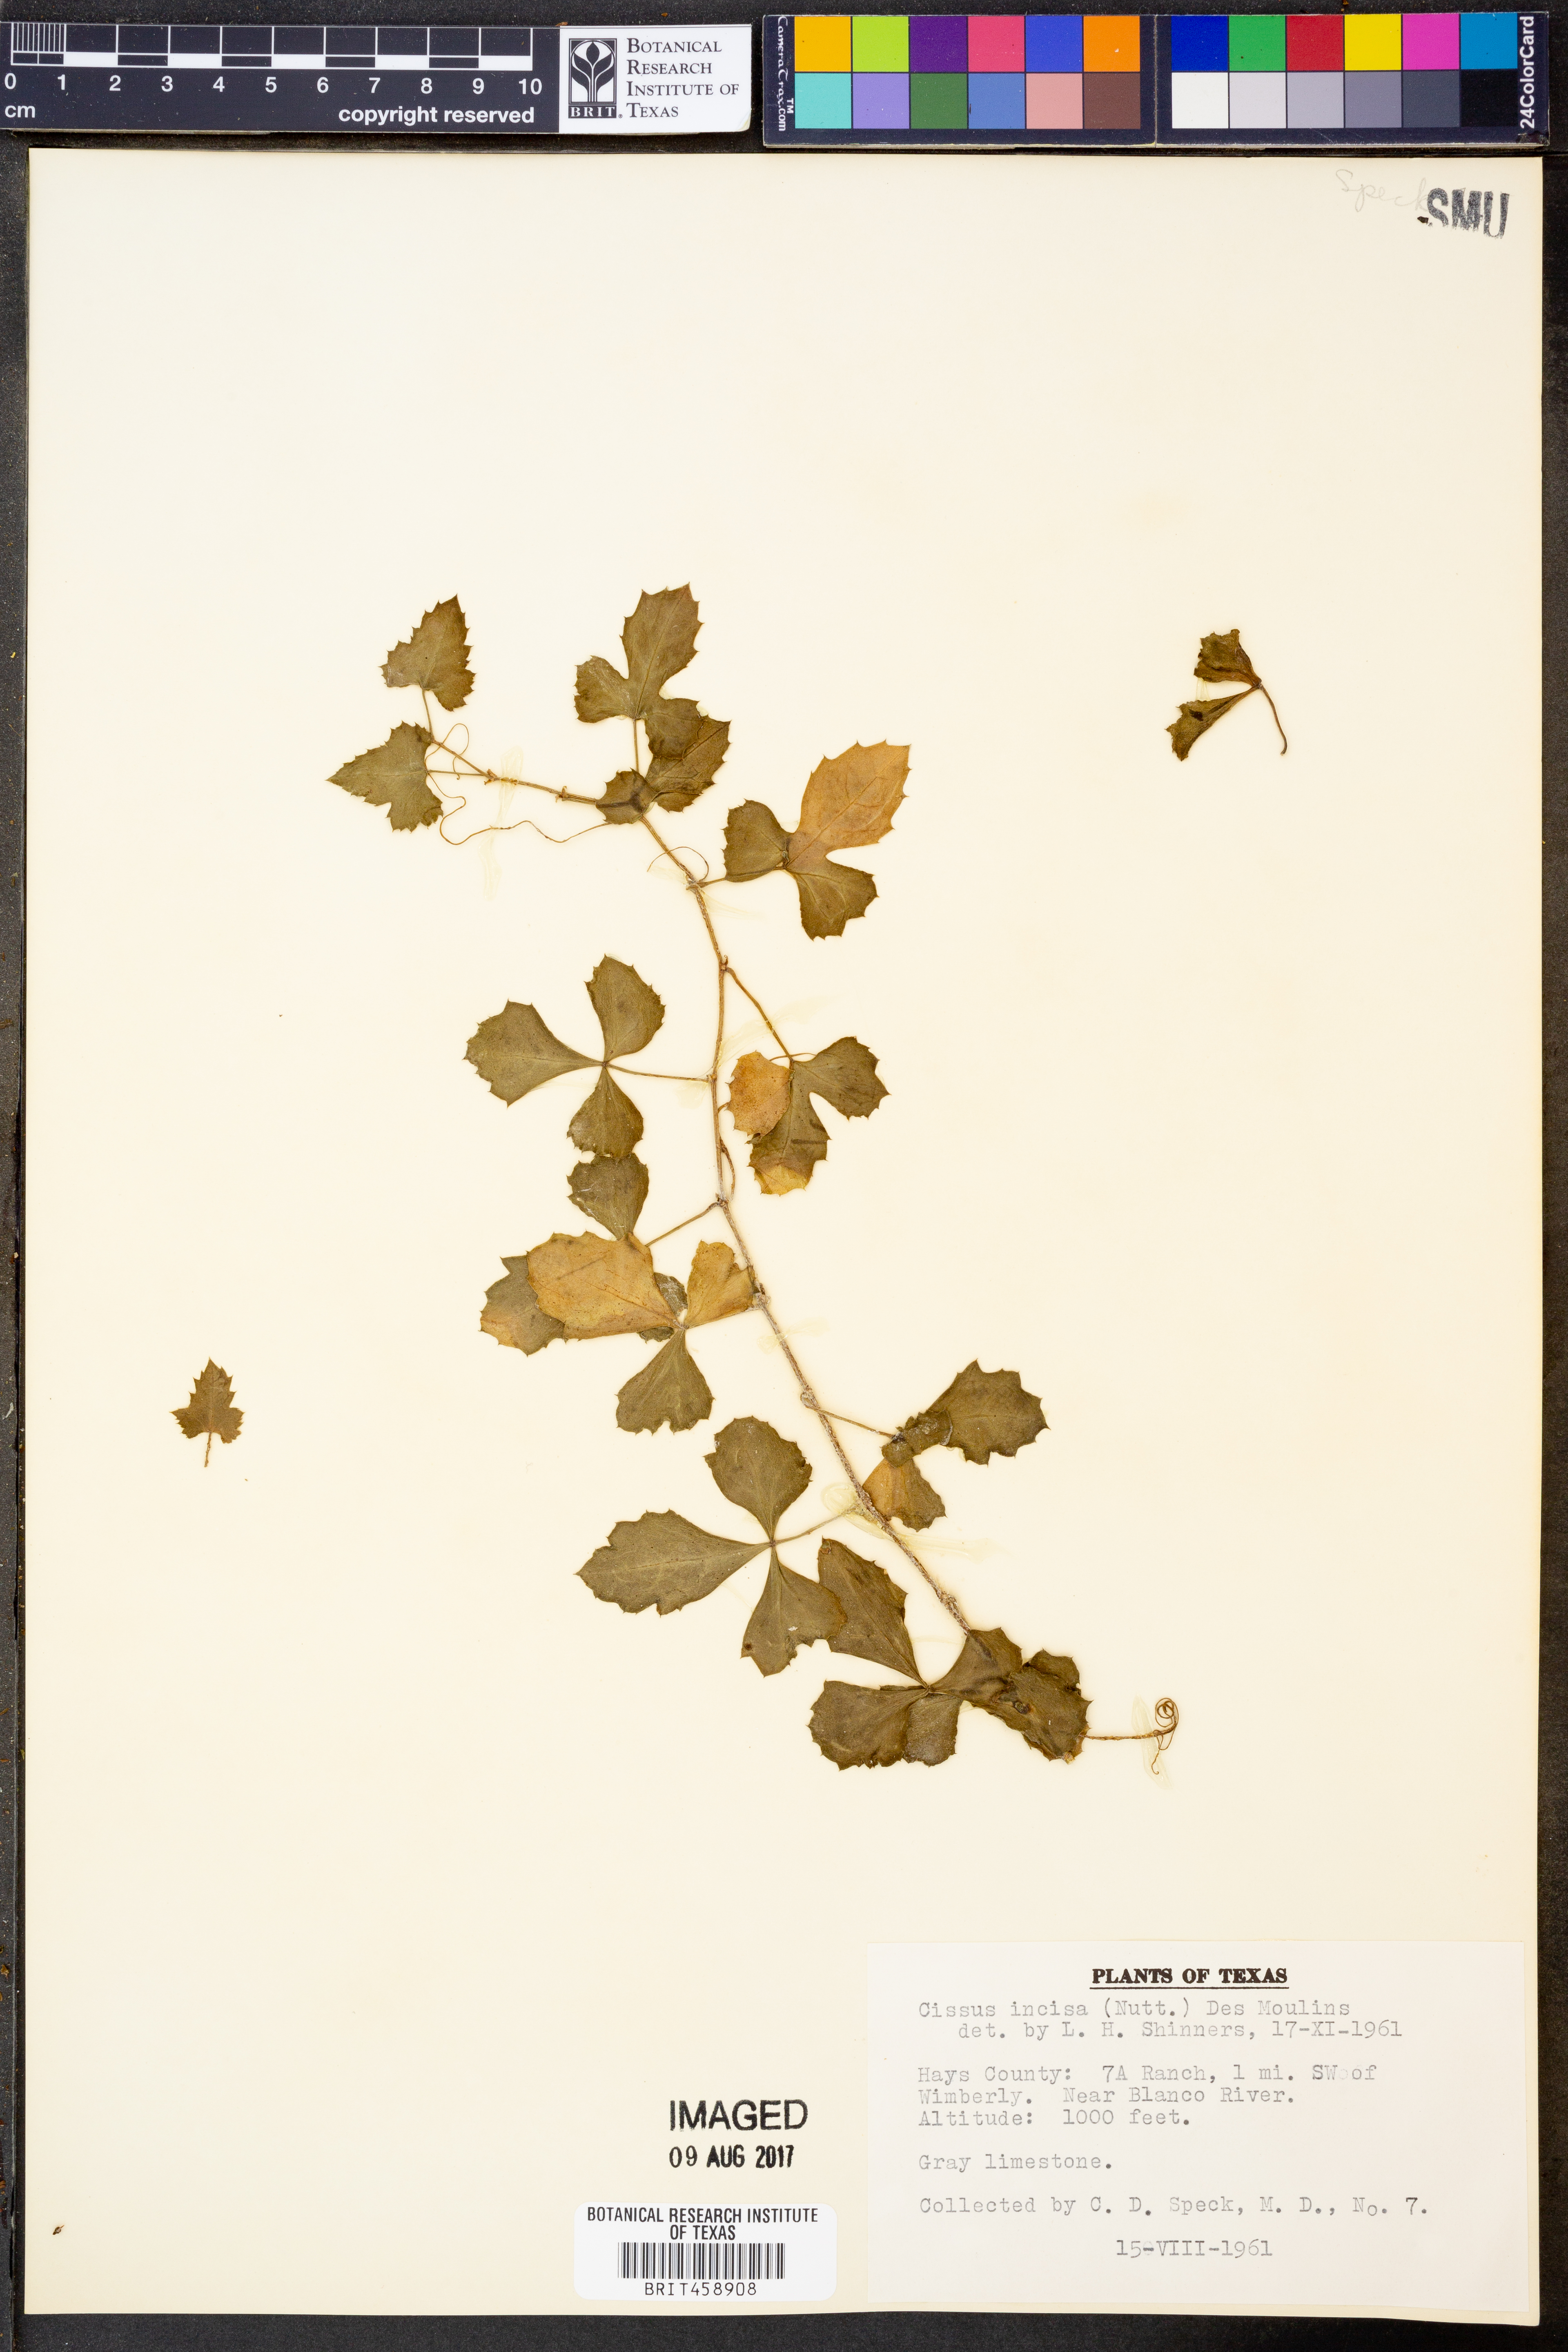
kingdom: Plantae
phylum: Tracheophyta
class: Magnoliopsida
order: Vitales
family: Vitaceae
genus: Cissus
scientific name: Cissus trifoliata
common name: Vine-sorrel
